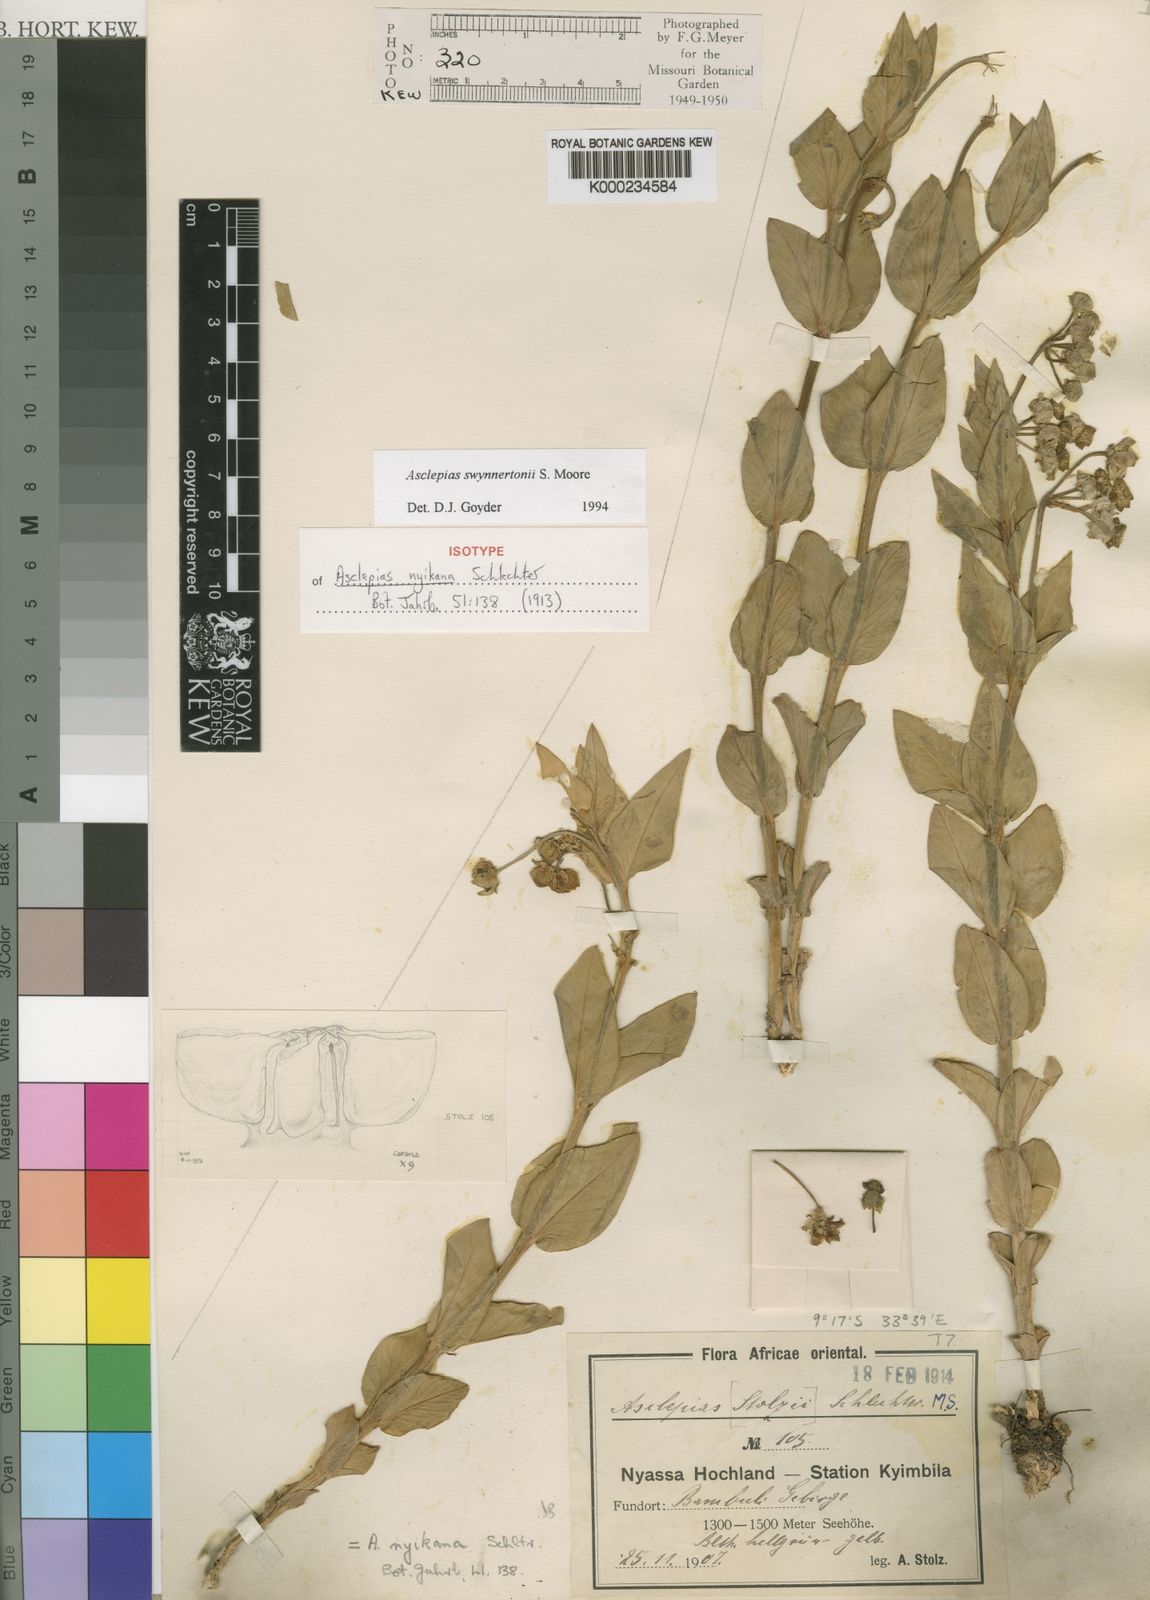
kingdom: Plantae
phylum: Tracheophyta
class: Magnoliopsida
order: Gentianales
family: Apocynaceae
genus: Gomphocarpus
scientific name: Gomphocarpus swynnertonii
